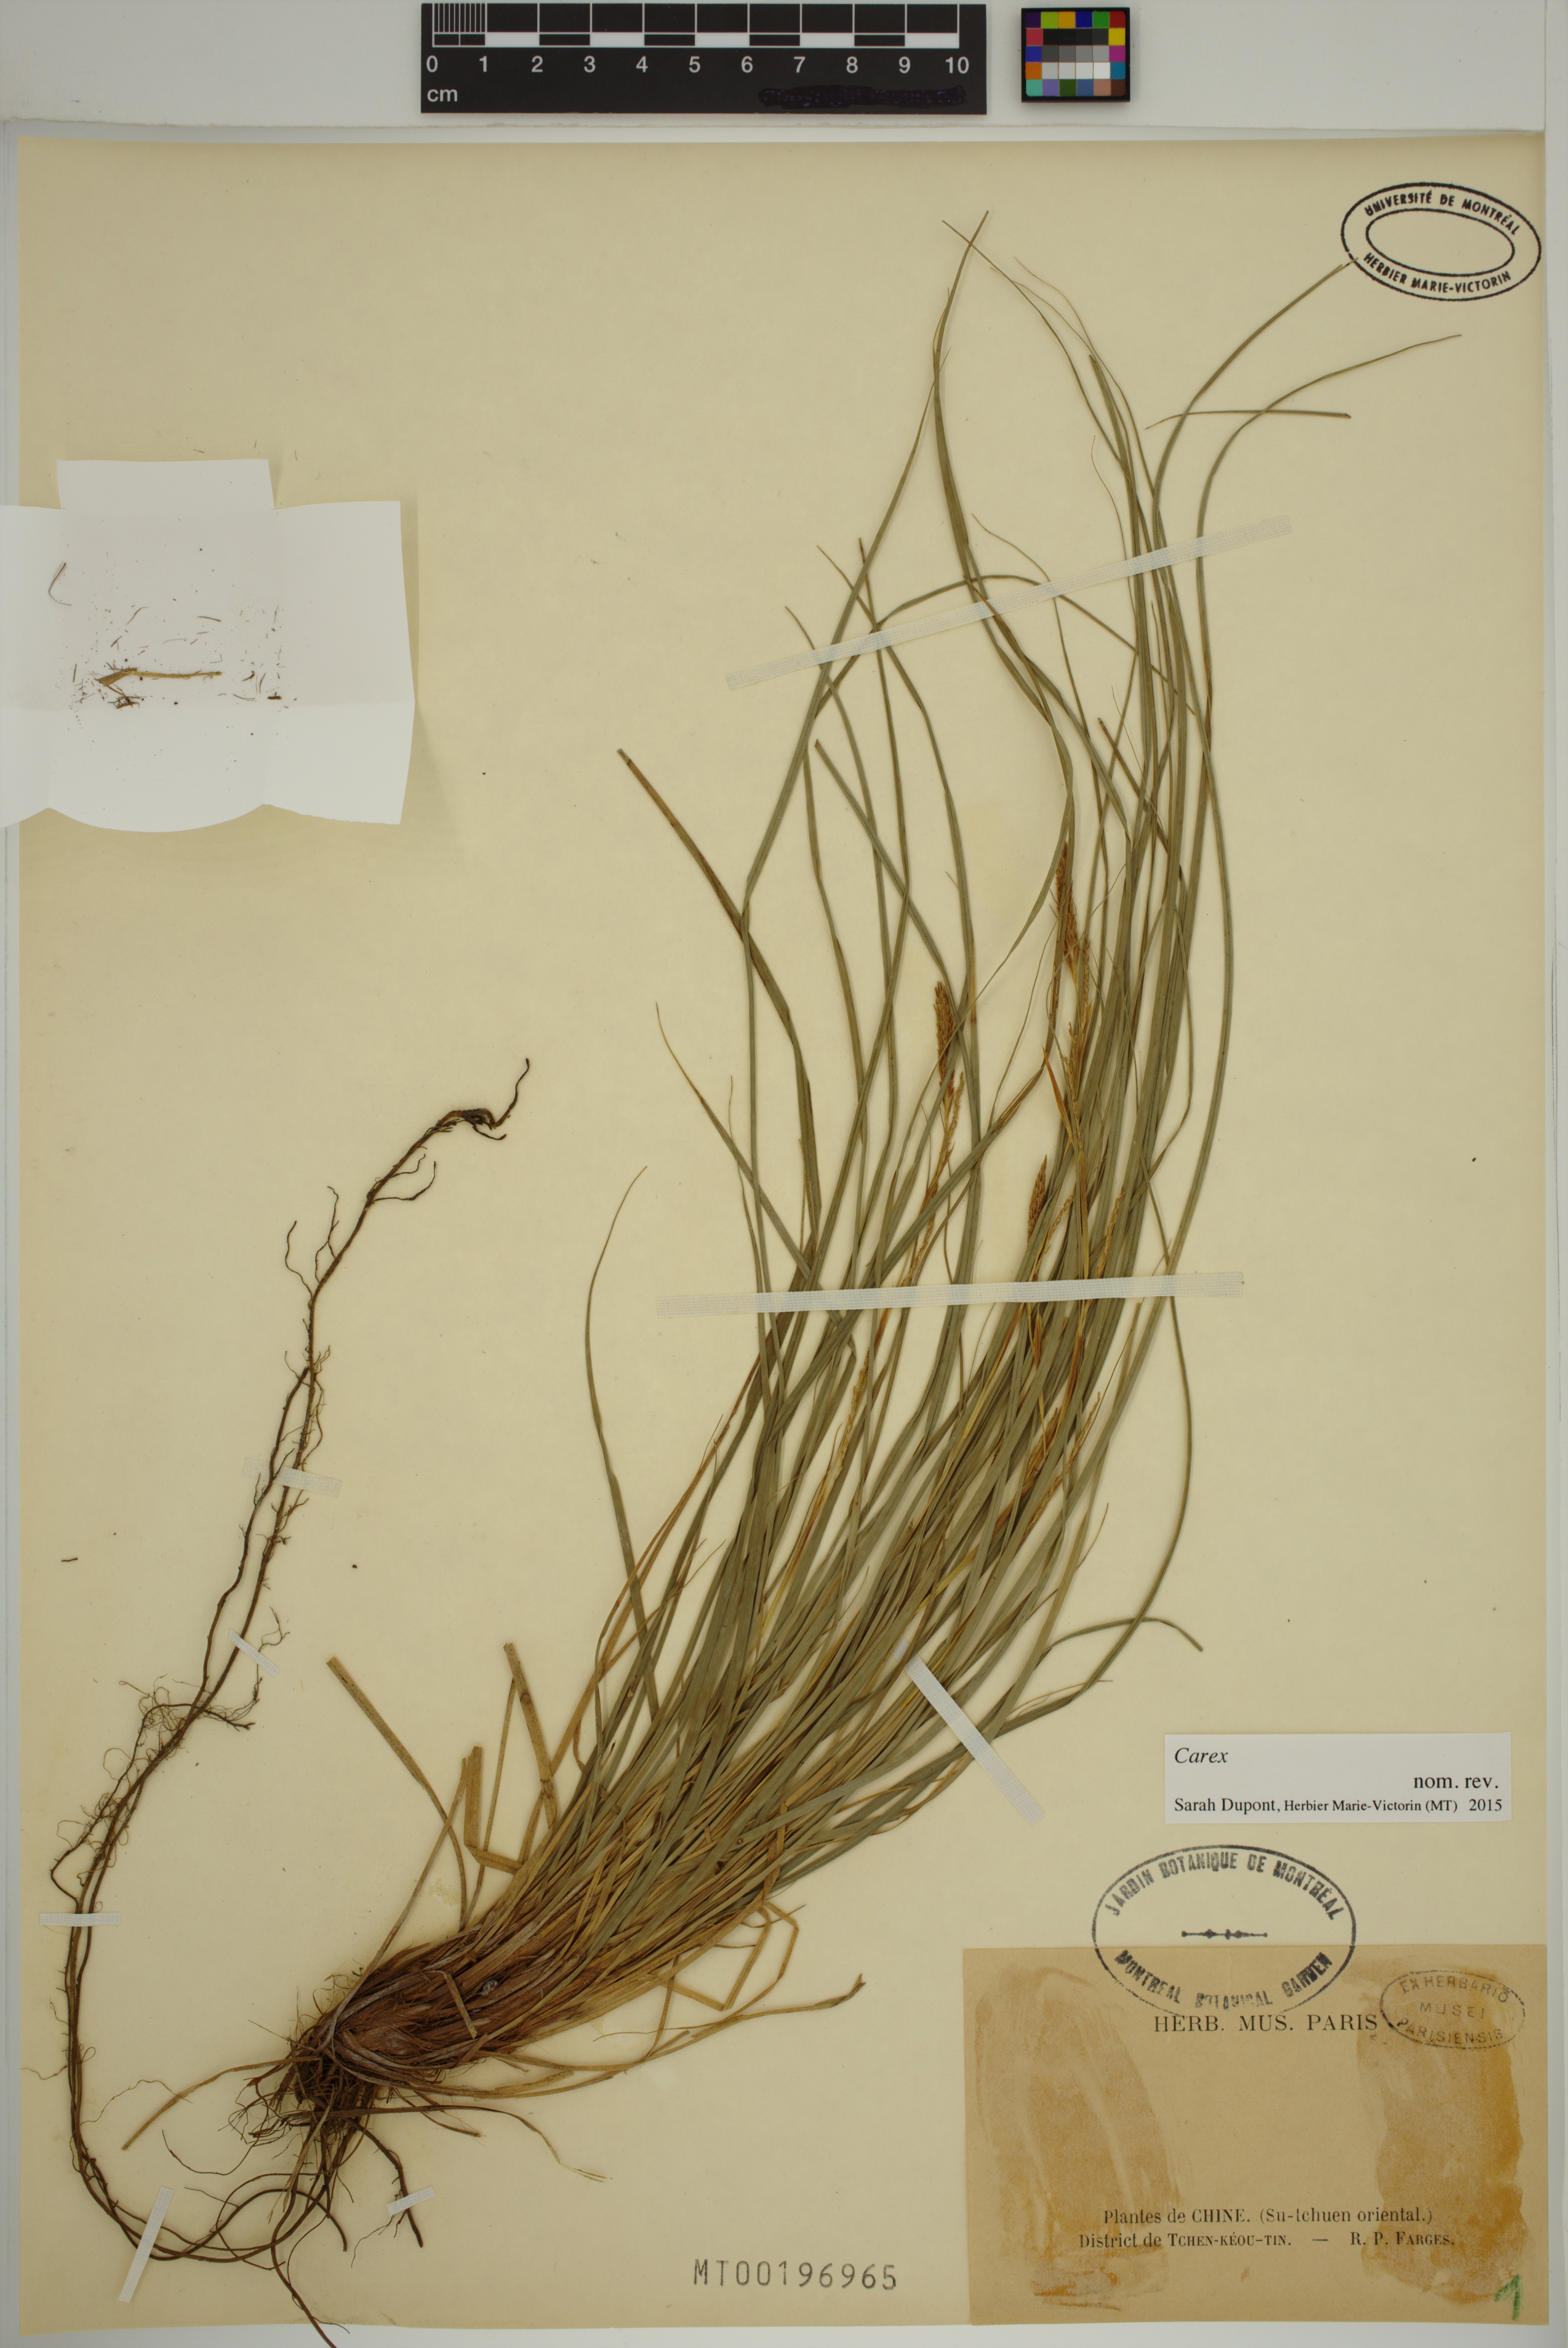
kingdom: Plantae
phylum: Tracheophyta
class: Liliopsida
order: Poales
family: Cyperaceae
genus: Carex
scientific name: Carex
